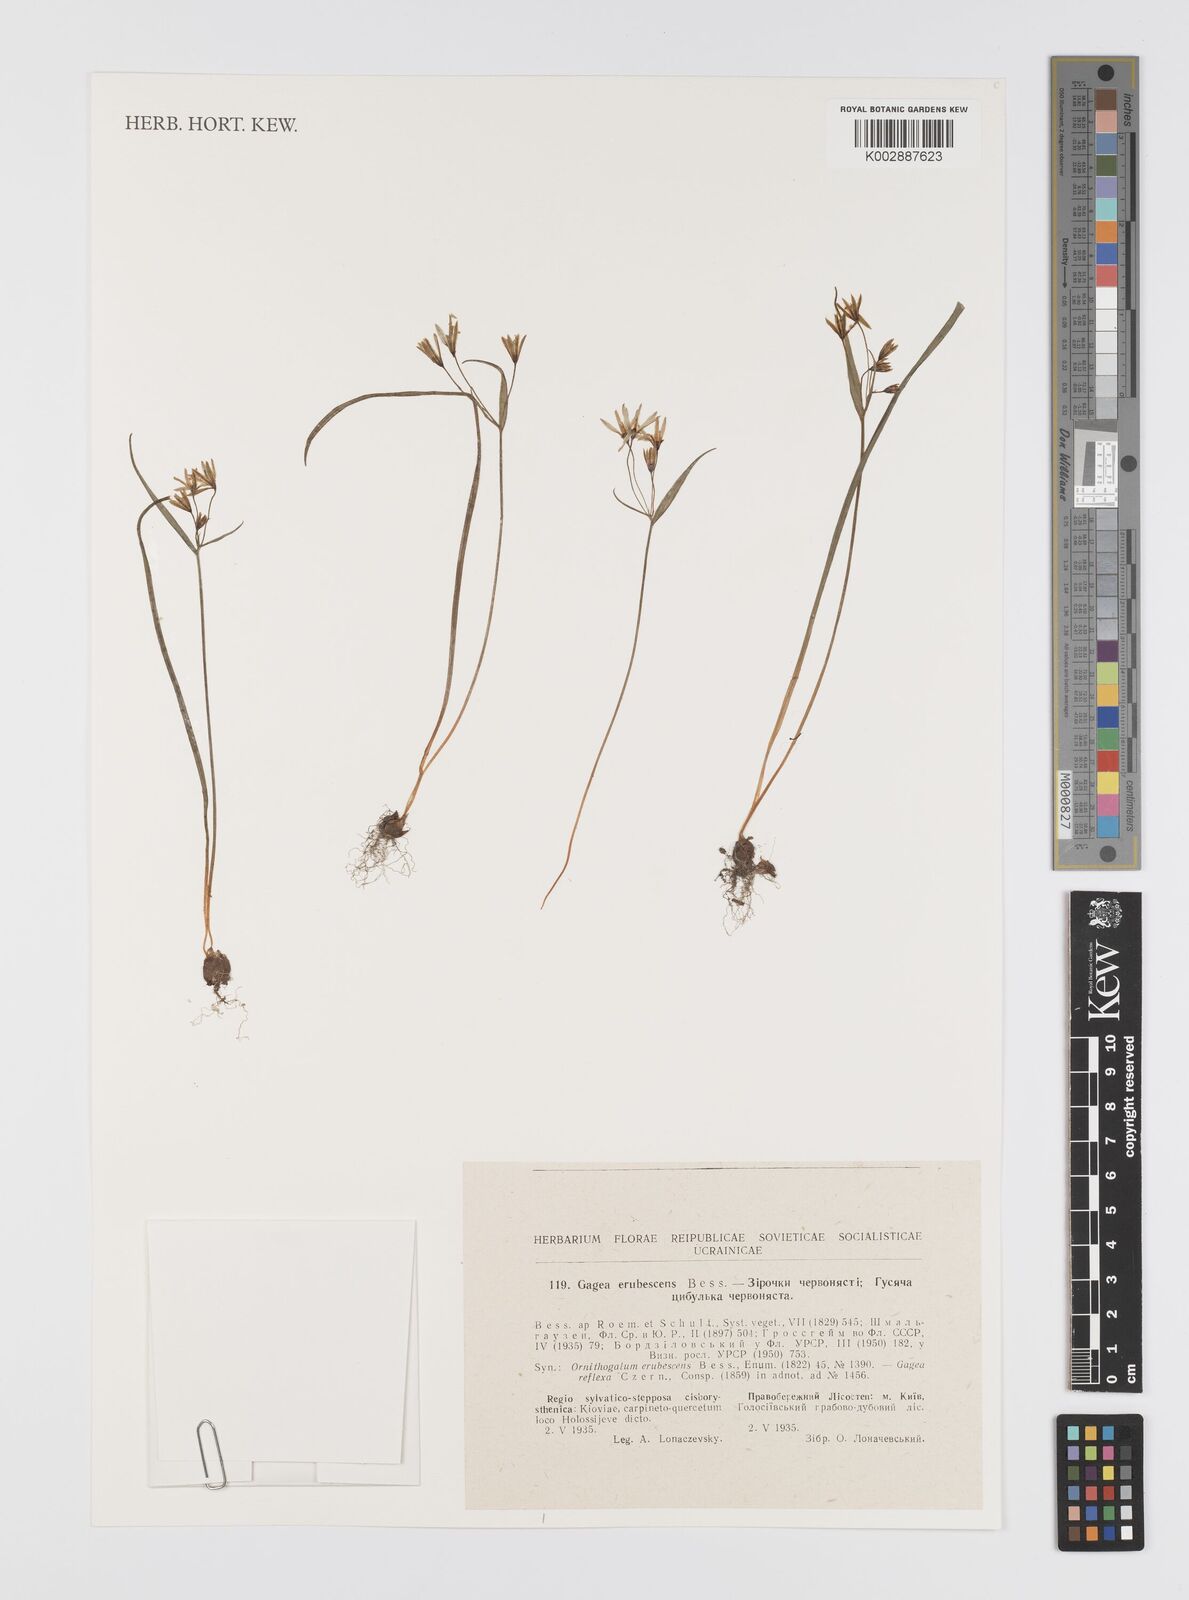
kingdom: Plantae
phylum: Tracheophyta
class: Liliopsida
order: Liliales
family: Liliaceae
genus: Gagea
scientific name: Gagea fragifera
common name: Lily
